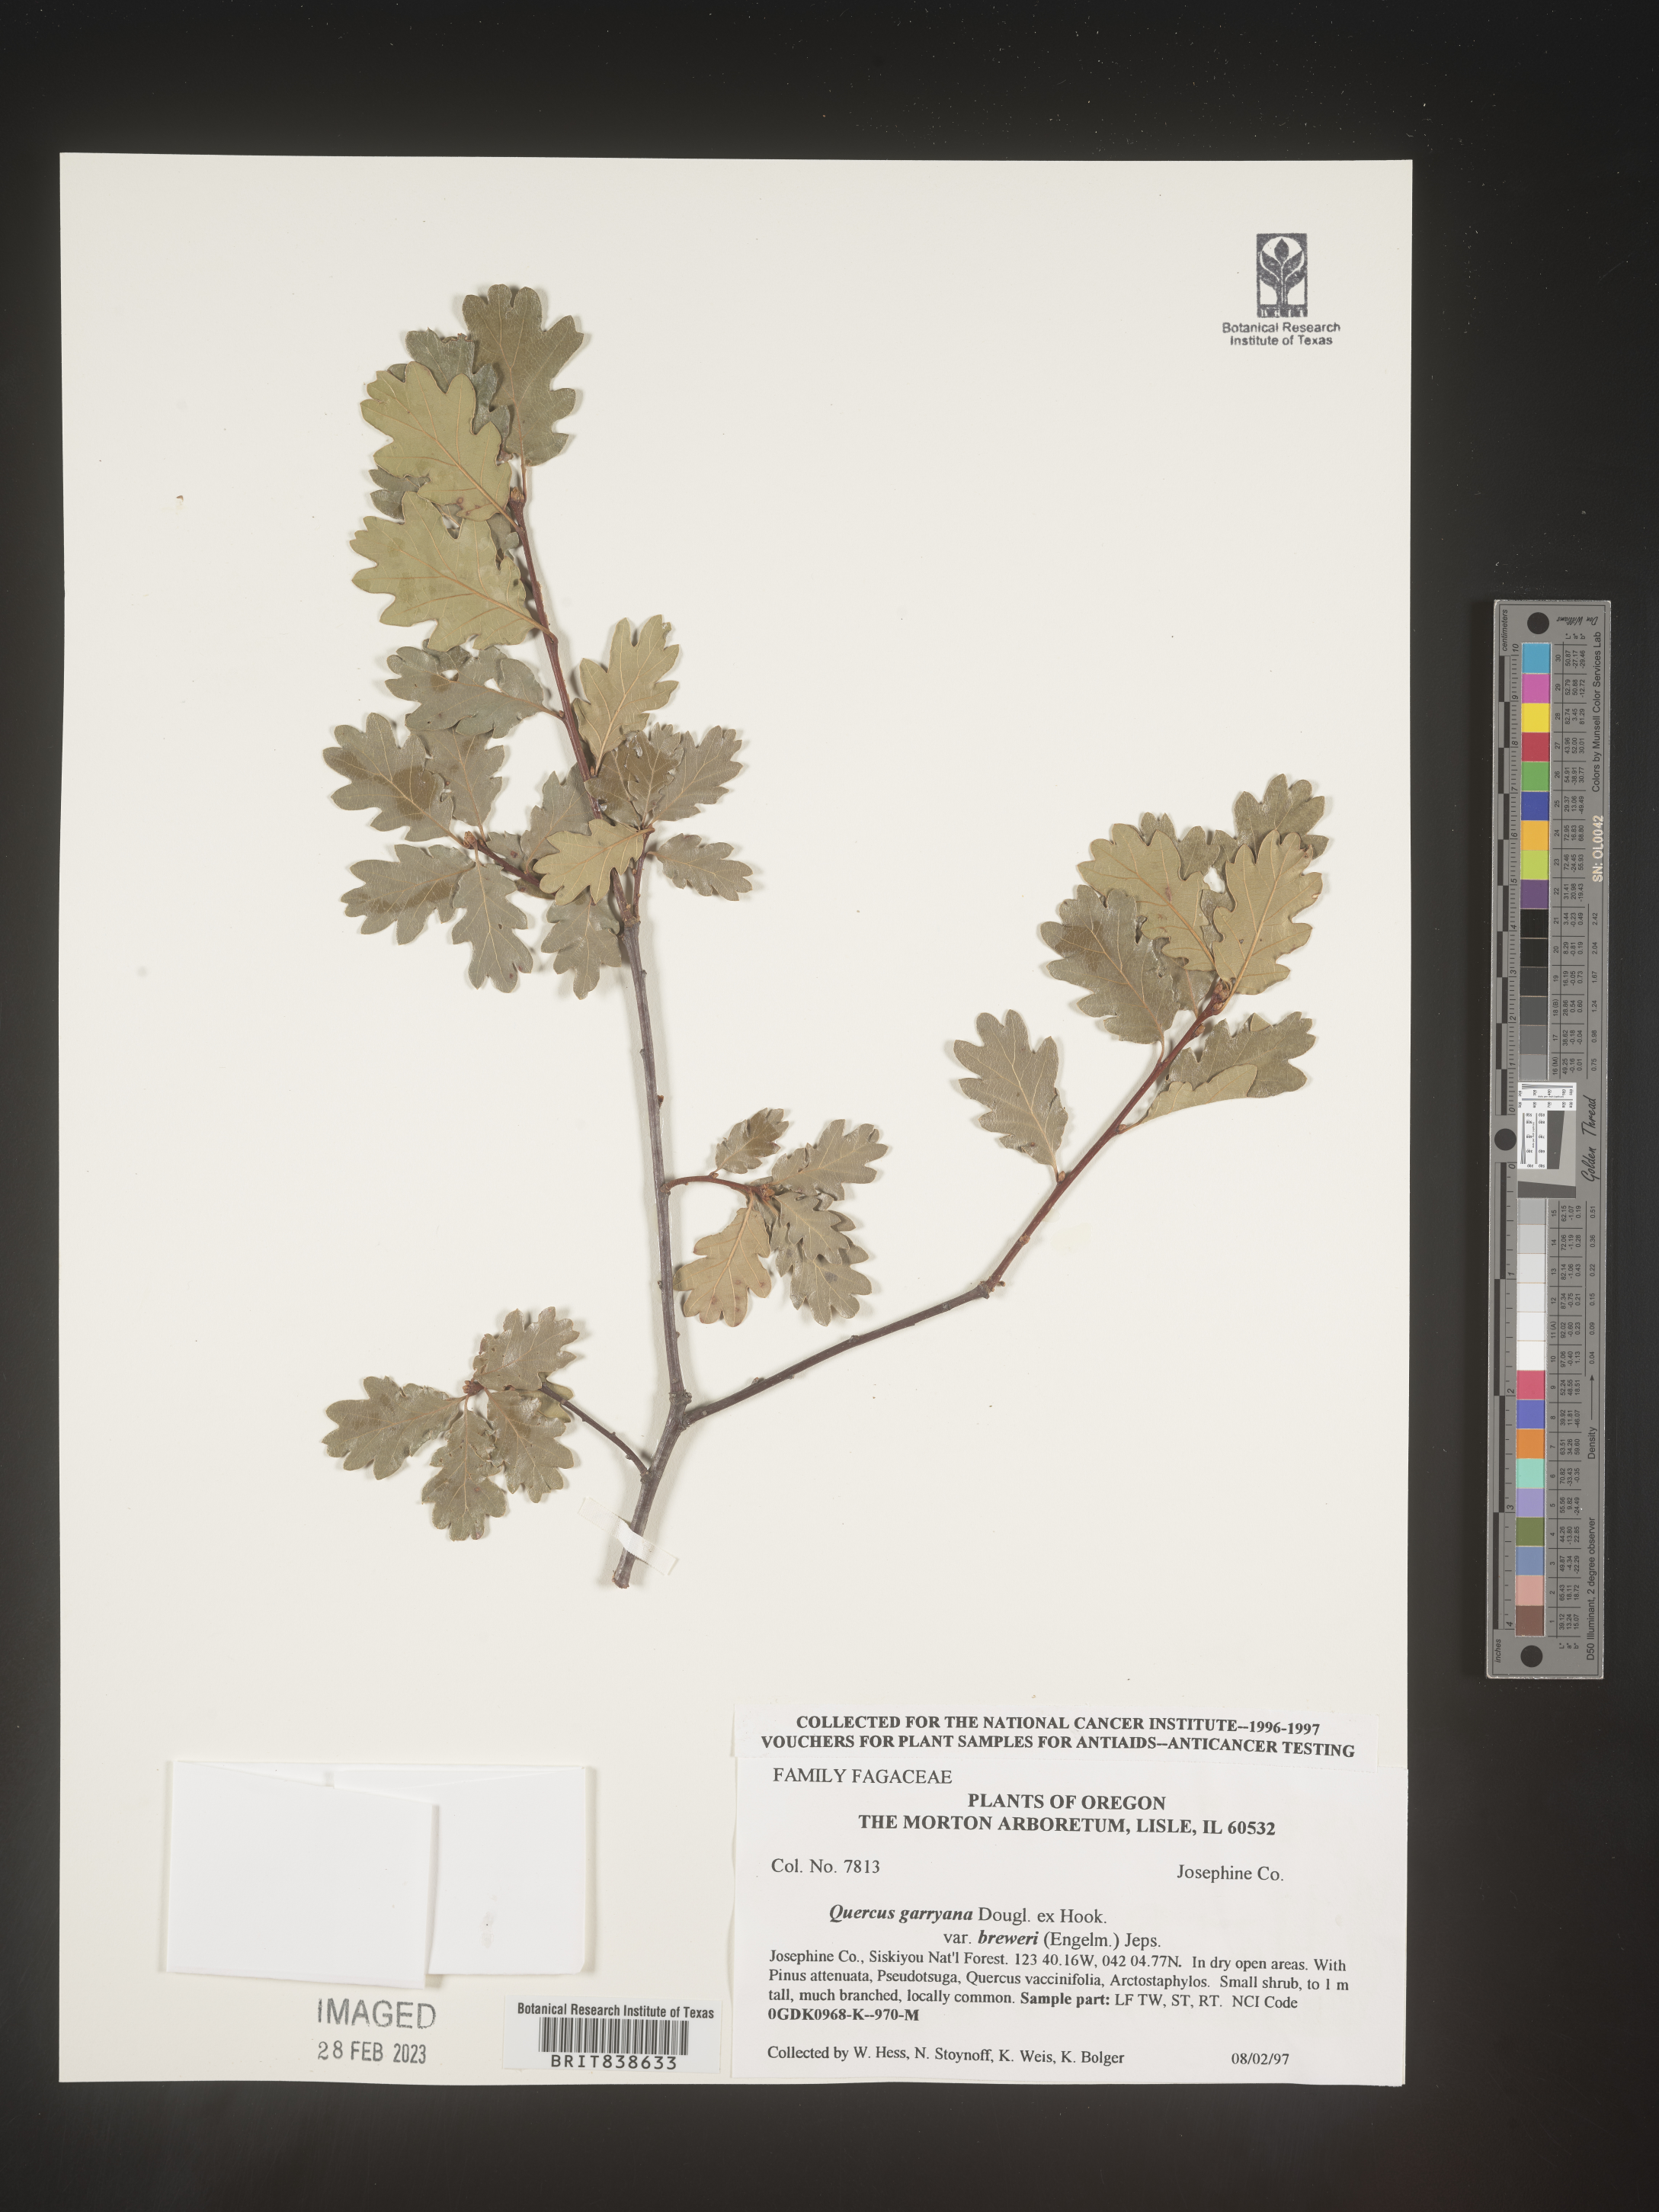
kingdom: Plantae
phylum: Tracheophyta
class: Magnoliopsida
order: Fagales
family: Fagaceae
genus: Quercus
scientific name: Quercus garryana
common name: Garry oak
